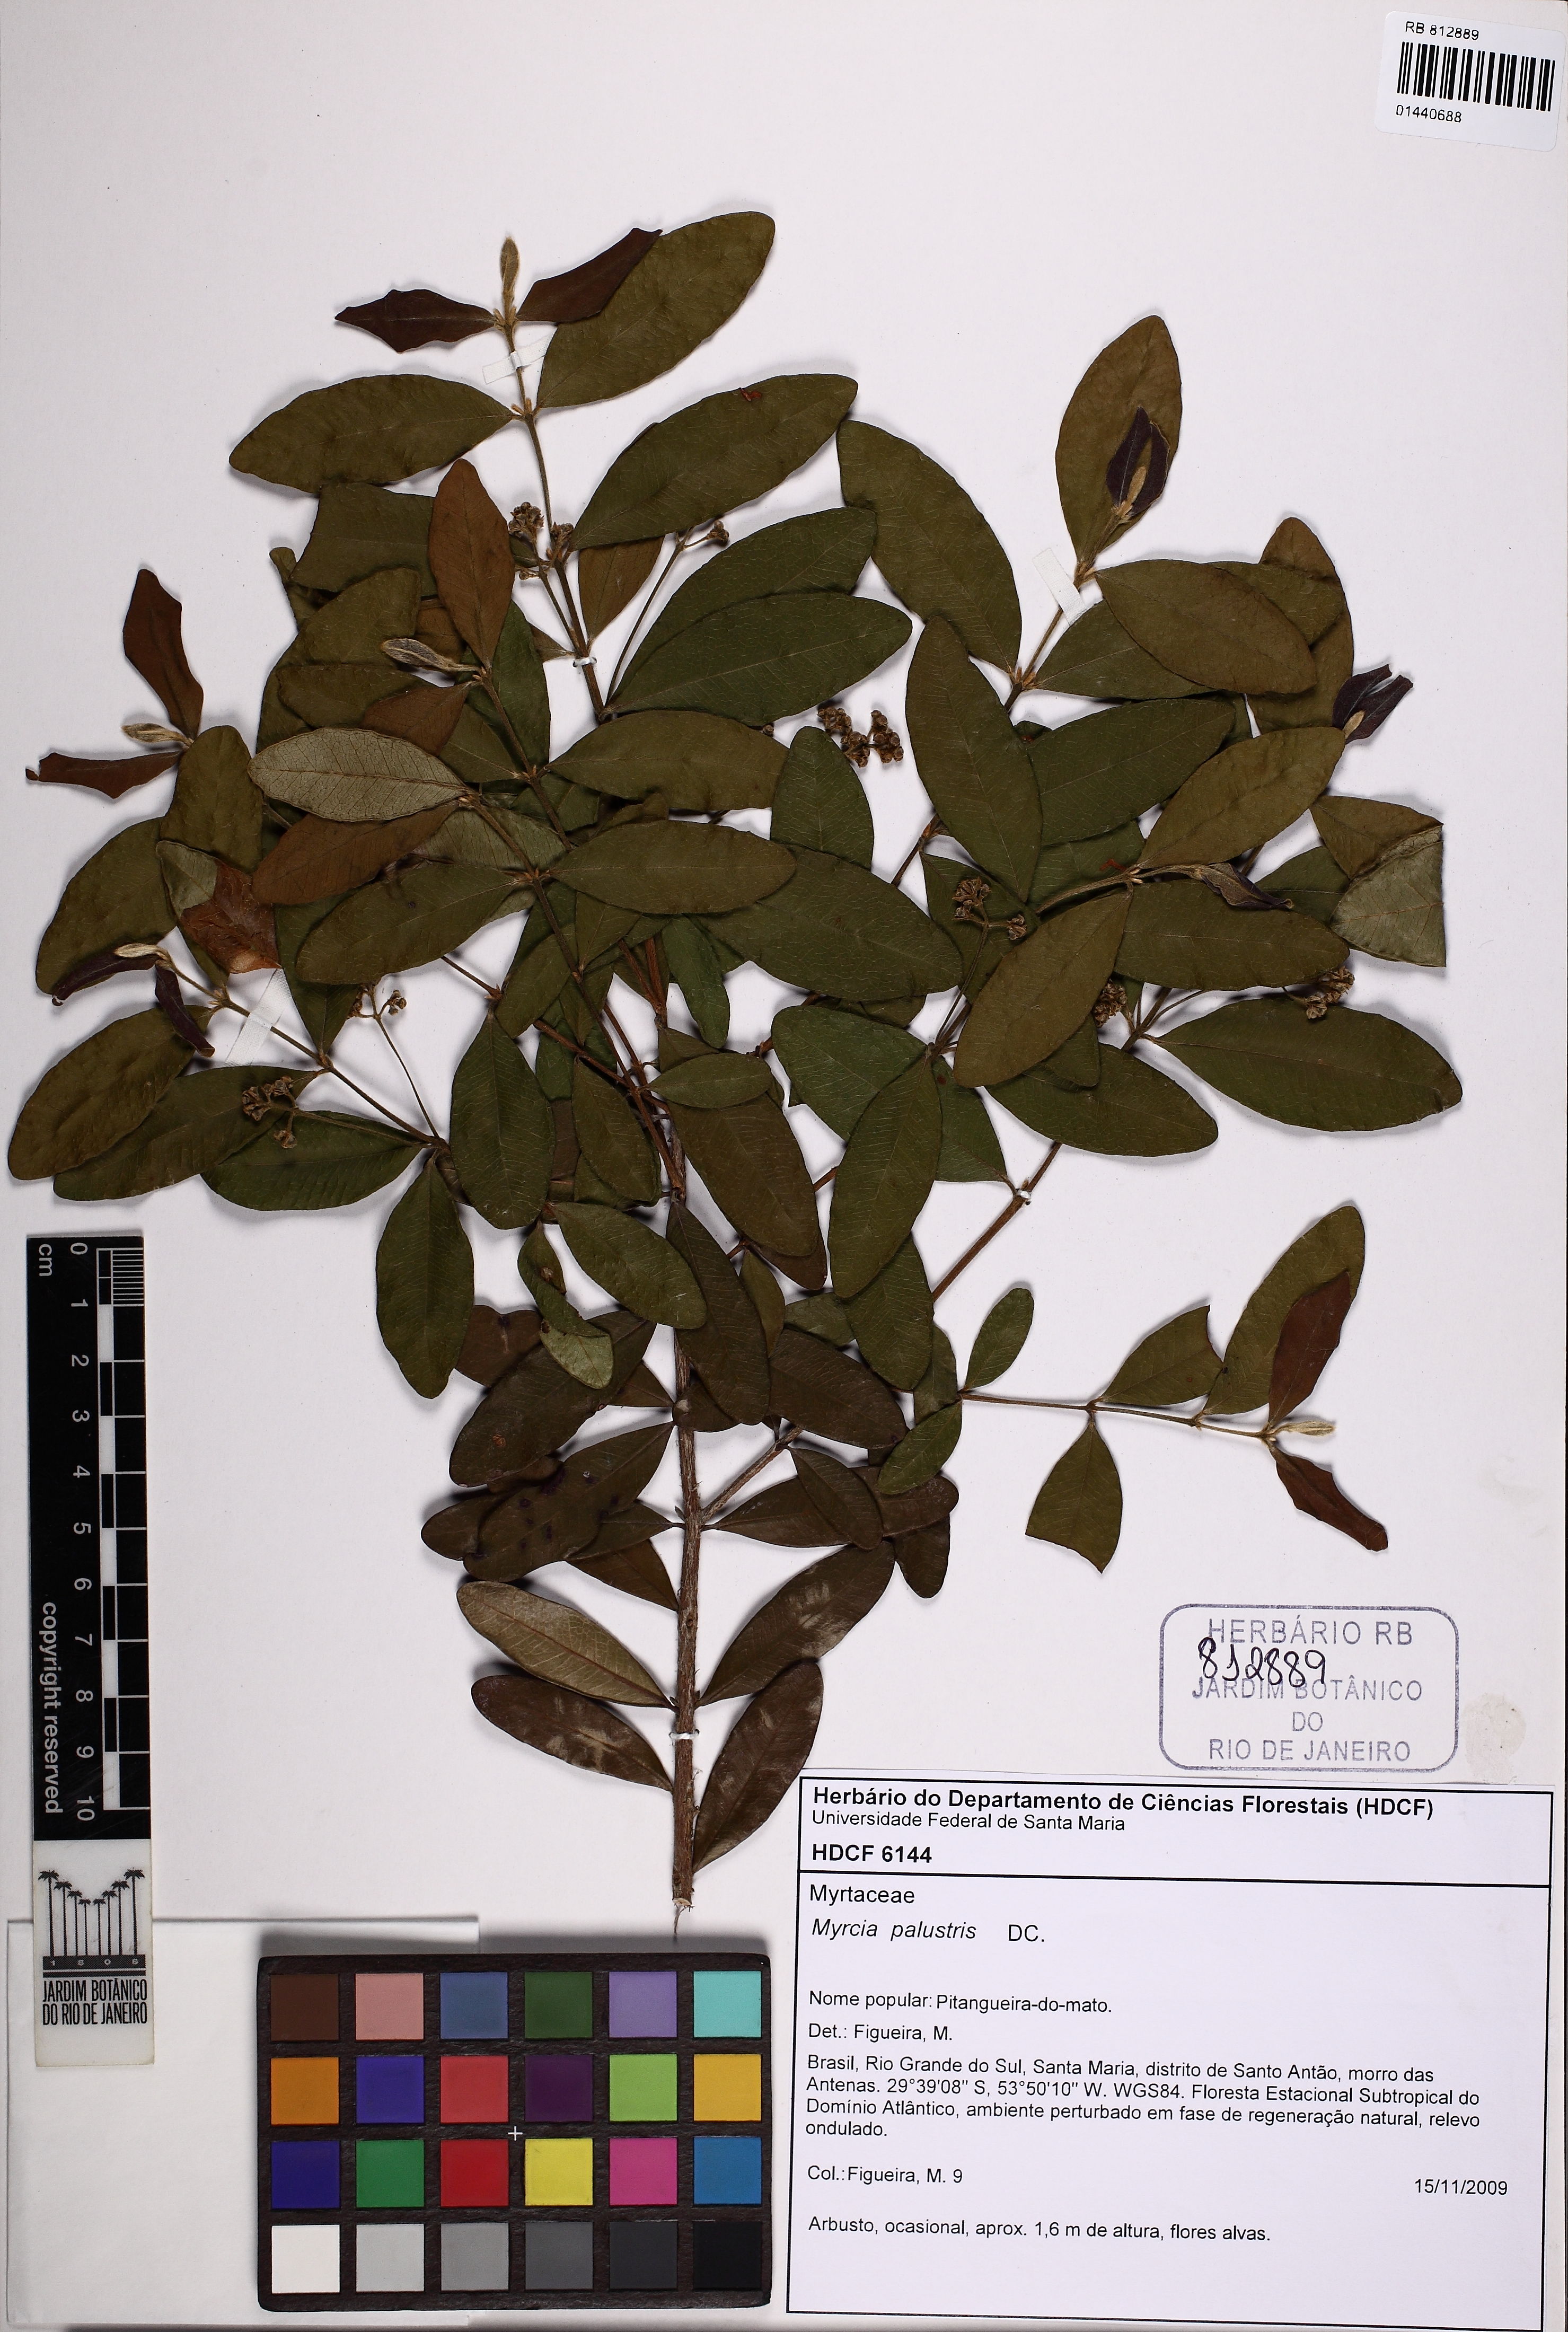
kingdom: Plantae
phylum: Tracheophyta
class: Magnoliopsida
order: Myrtales
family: Myrtaceae
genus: Myrcia
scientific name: Myrcia palustris
